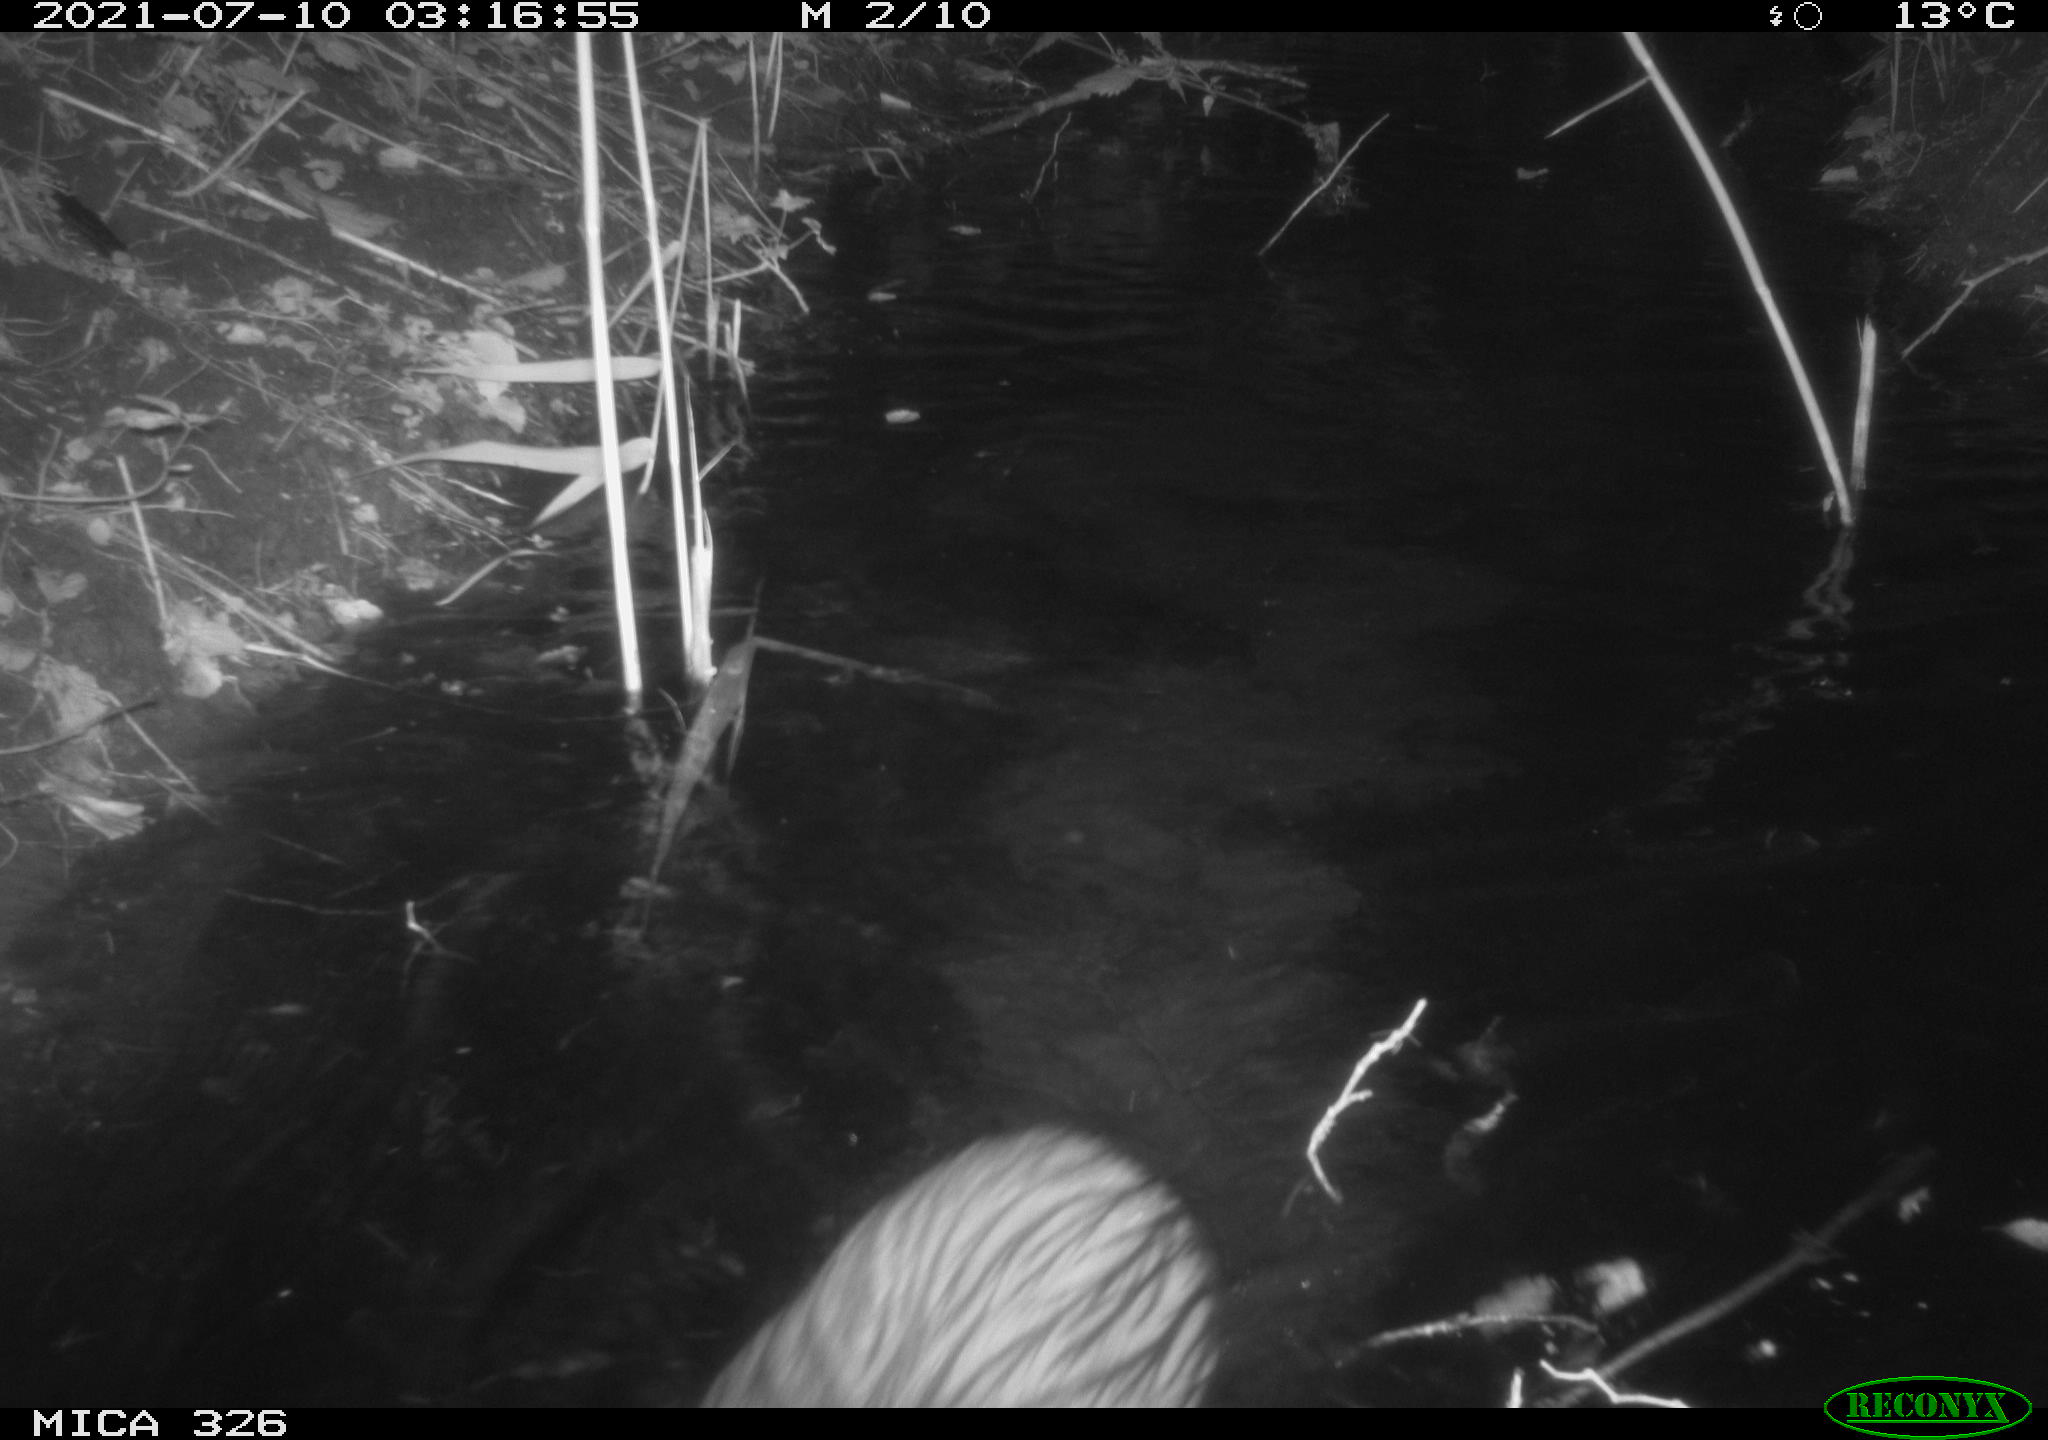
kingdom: Animalia
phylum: Chordata
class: Mammalia
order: Rodentia
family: Myocastoridae
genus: Myocastor
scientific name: Myocastor coypus
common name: Coypu
